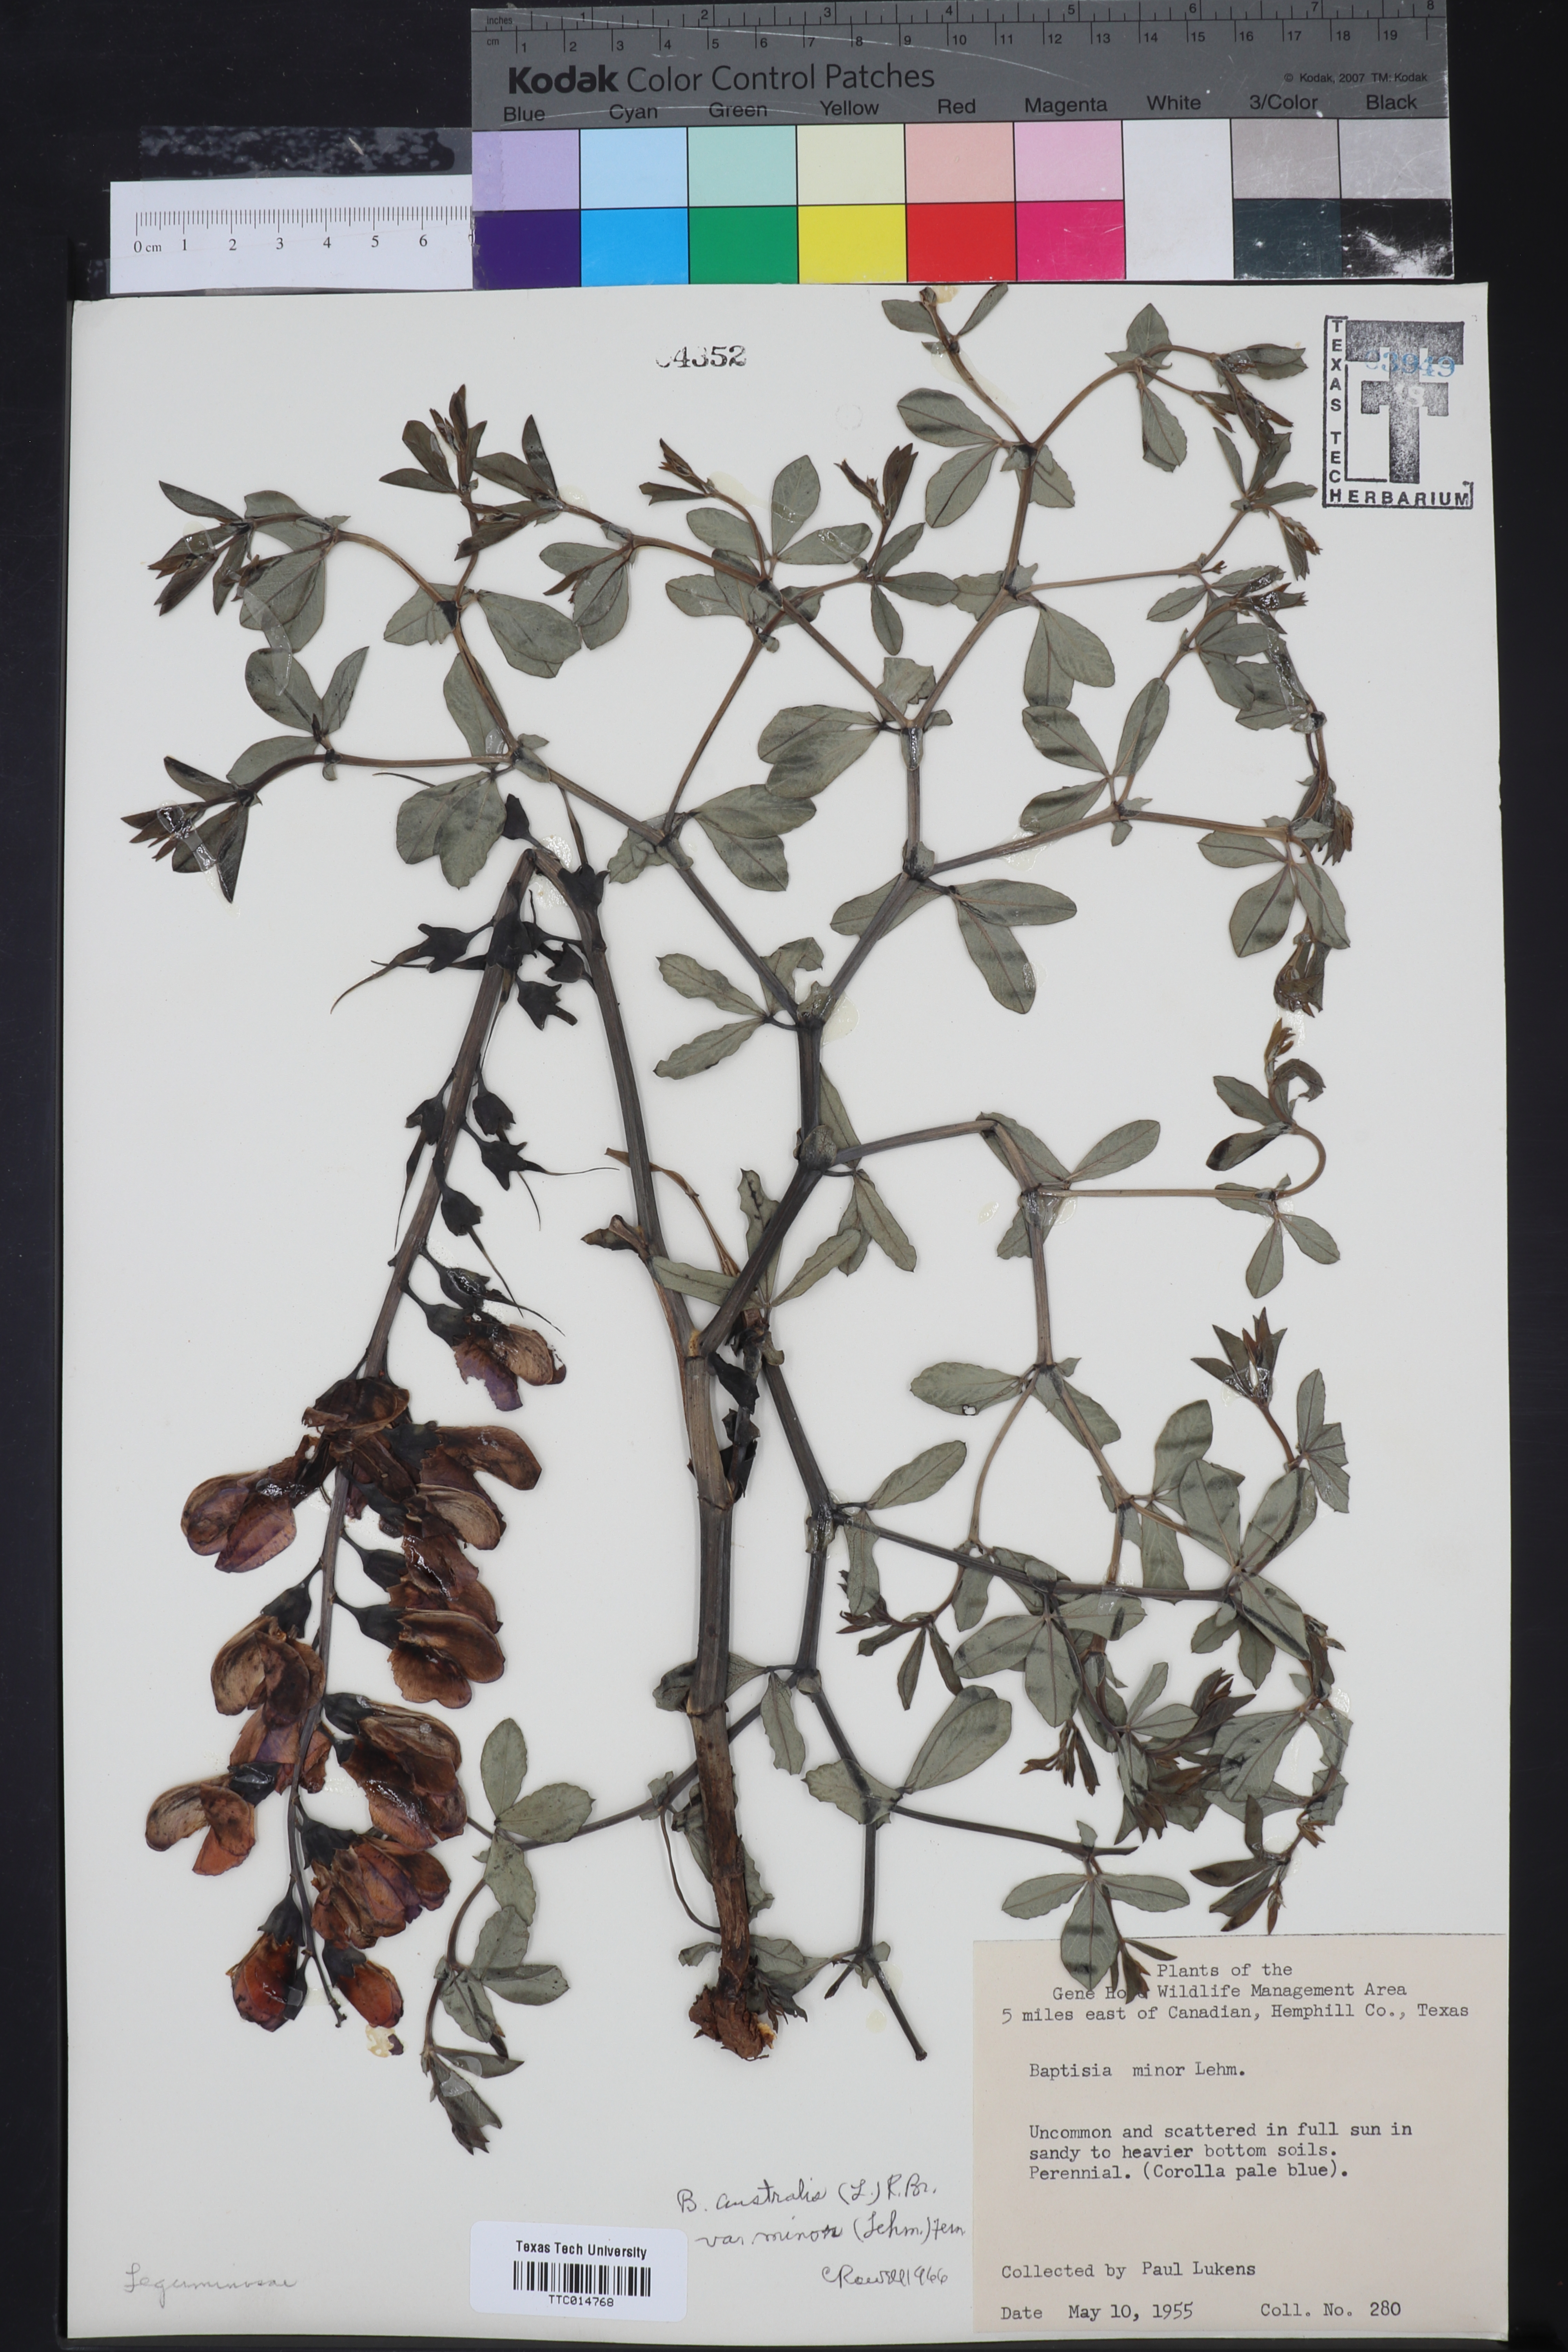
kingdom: Plantae
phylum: Tracheophyta
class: Magnoliopsida
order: Fabales
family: Fabaceae
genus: Baptisia
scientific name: Baptisia australis
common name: Blue false indigo
